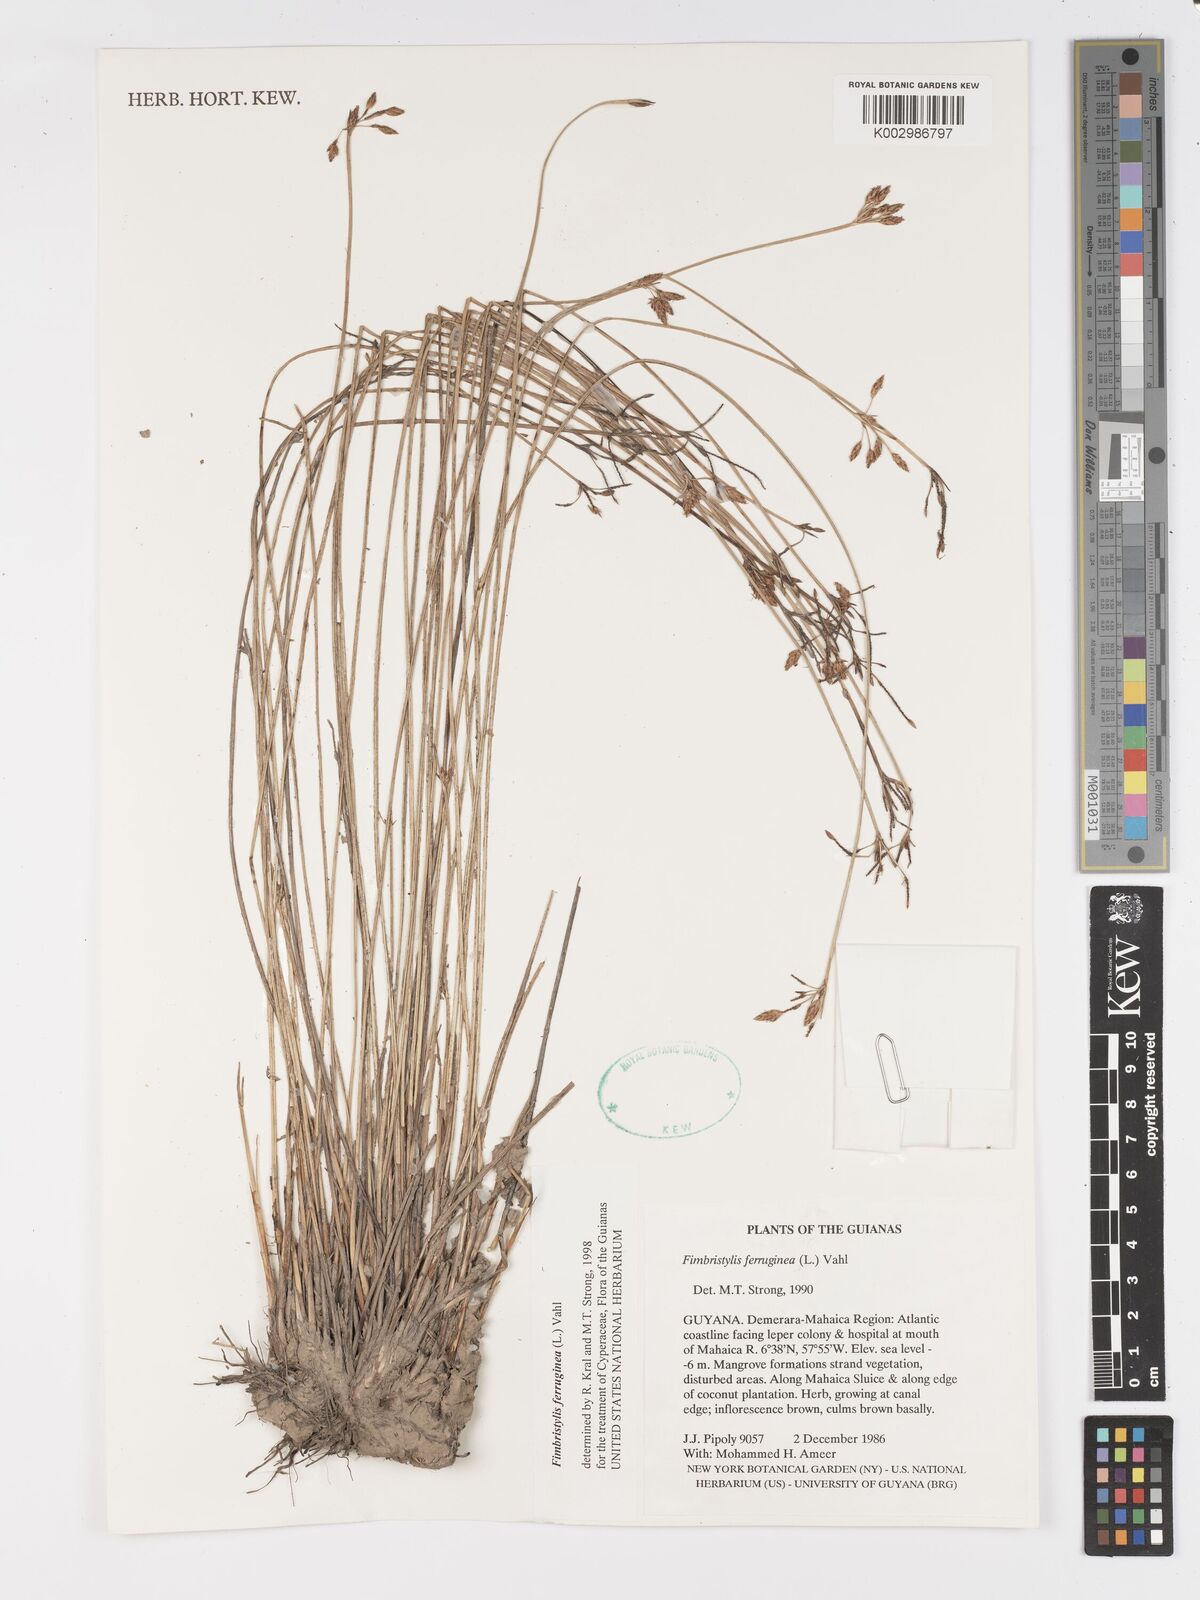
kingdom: Plantae
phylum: Tracheophyta
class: Liliopsida
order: Poales
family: Cyperaceae
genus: Fimbristylis
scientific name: Fimbristylis ferruginea
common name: West indian fimbry
